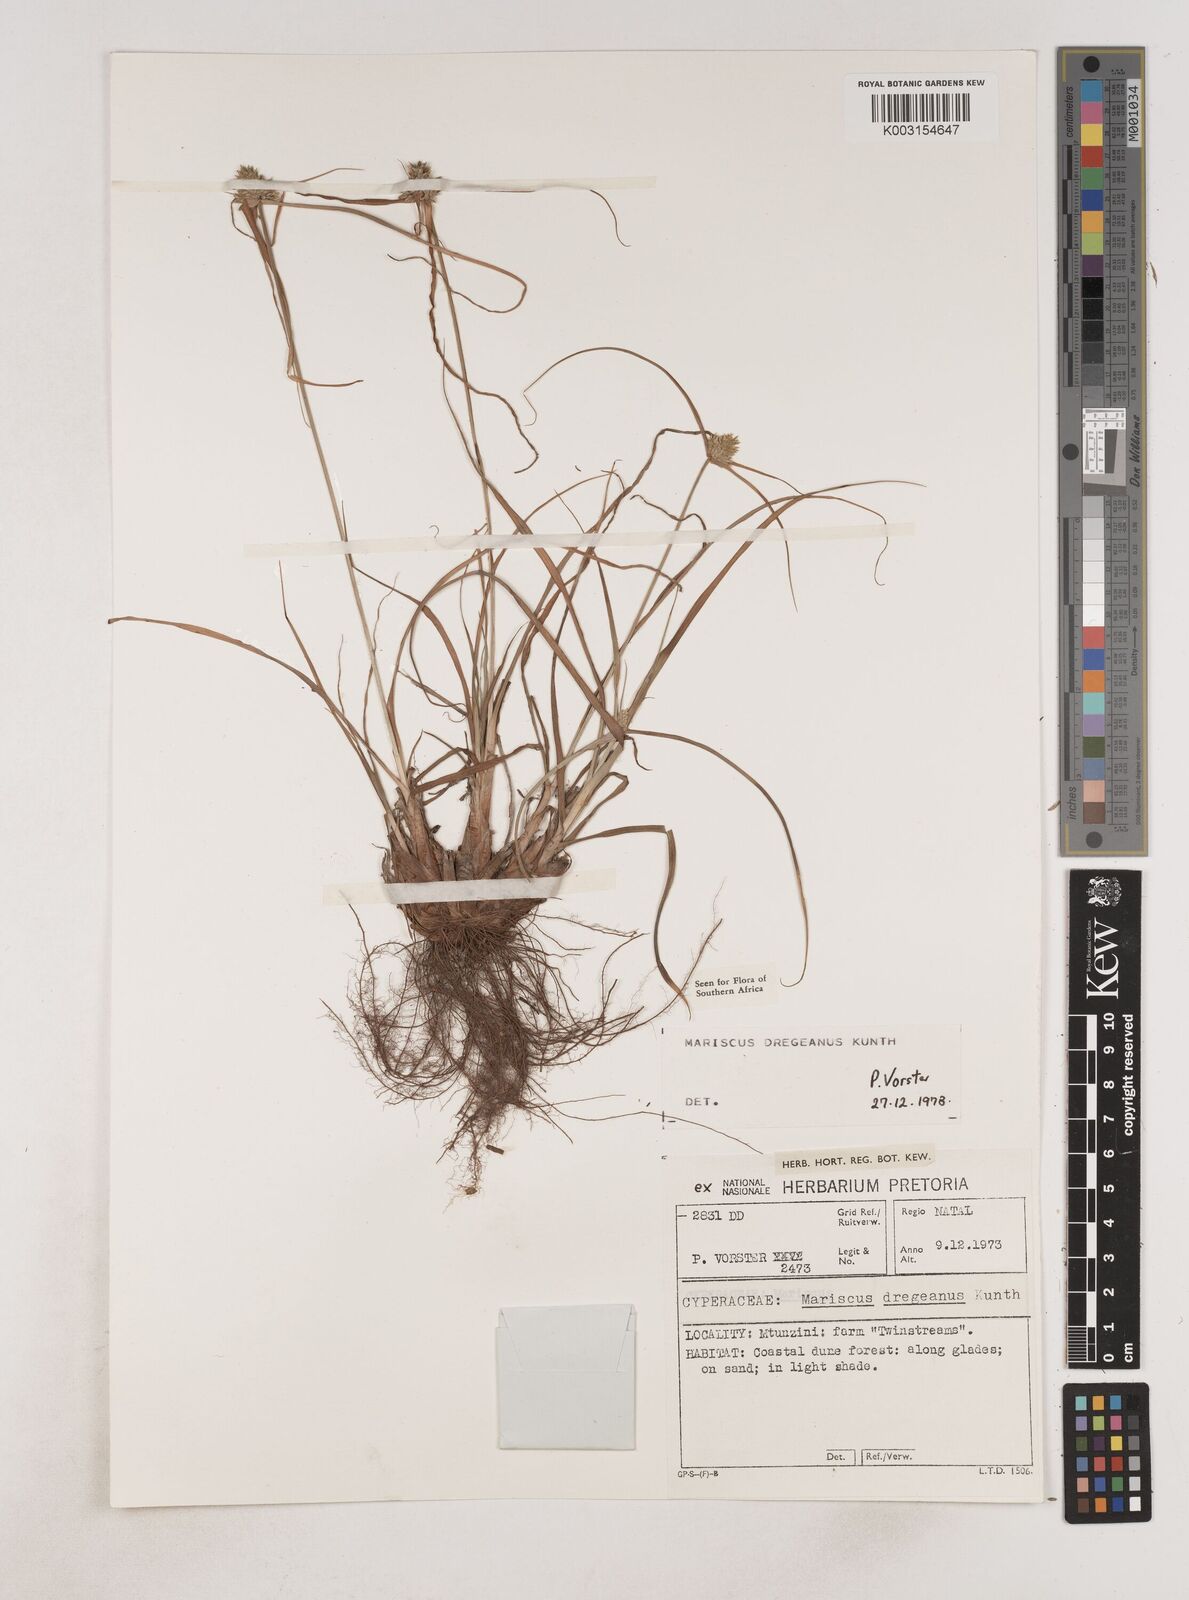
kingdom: Plantae
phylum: Tracheophyta
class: Liliopsida
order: Poales
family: Cyperaceae
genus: Cyperus
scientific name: Cyperus dubius
